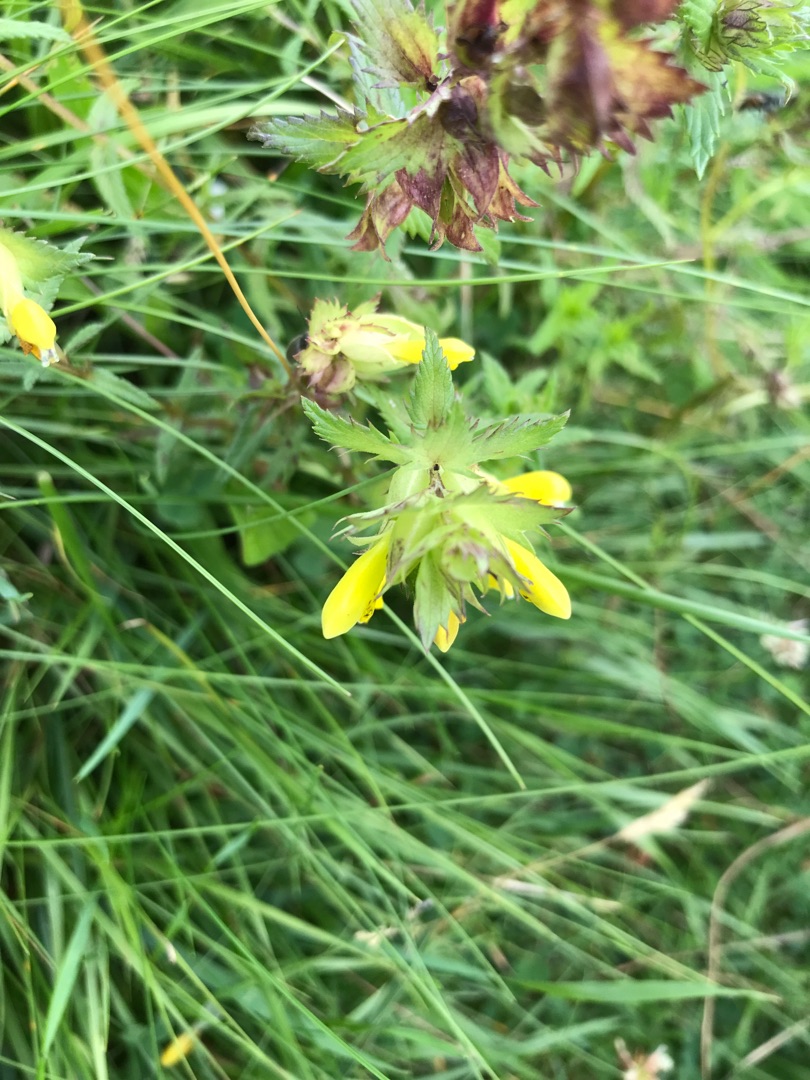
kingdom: Plantae
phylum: Tracheophyta
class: Magnoliopsida
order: Lamiales
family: Orobanchaceae
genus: Rhinanthus
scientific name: Rhinanthus
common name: Stor skjaller
